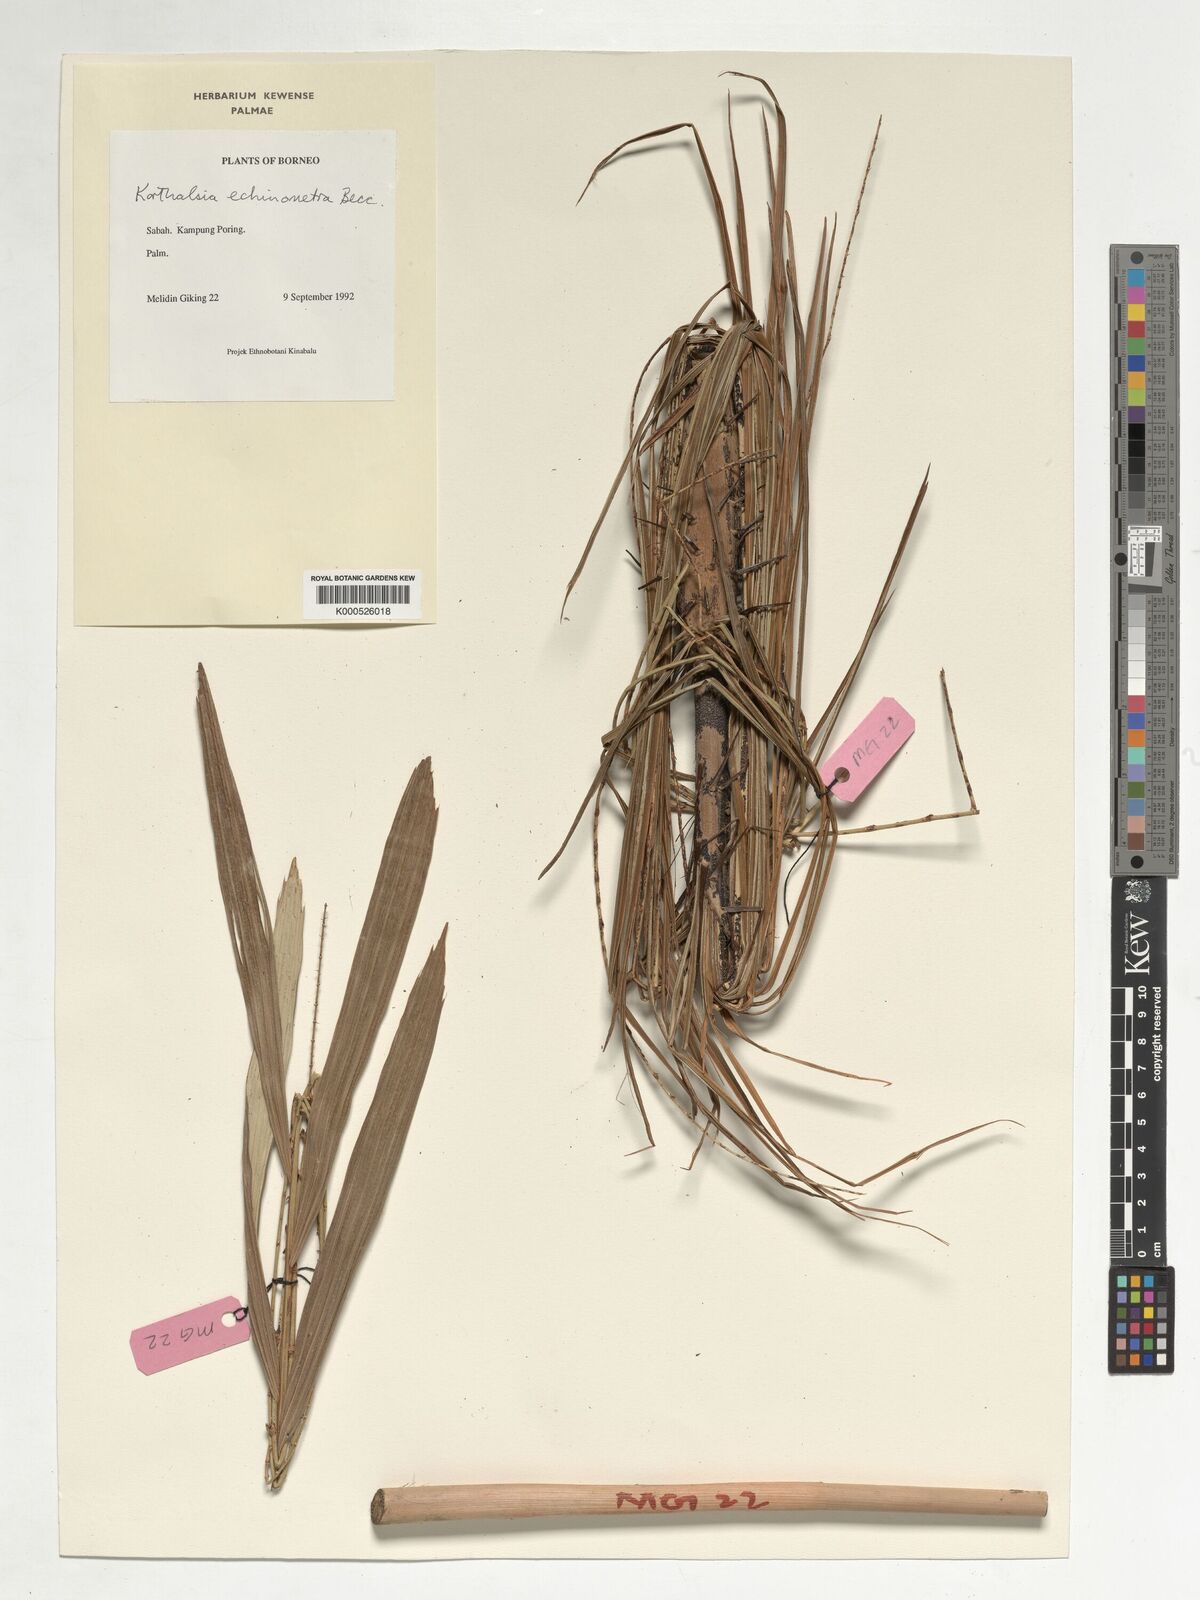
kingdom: Plantae
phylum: Tracheophyta
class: Liliopsida
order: Arecales
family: Arecaceae
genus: Korthalsia
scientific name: Korthalsia echinometra
